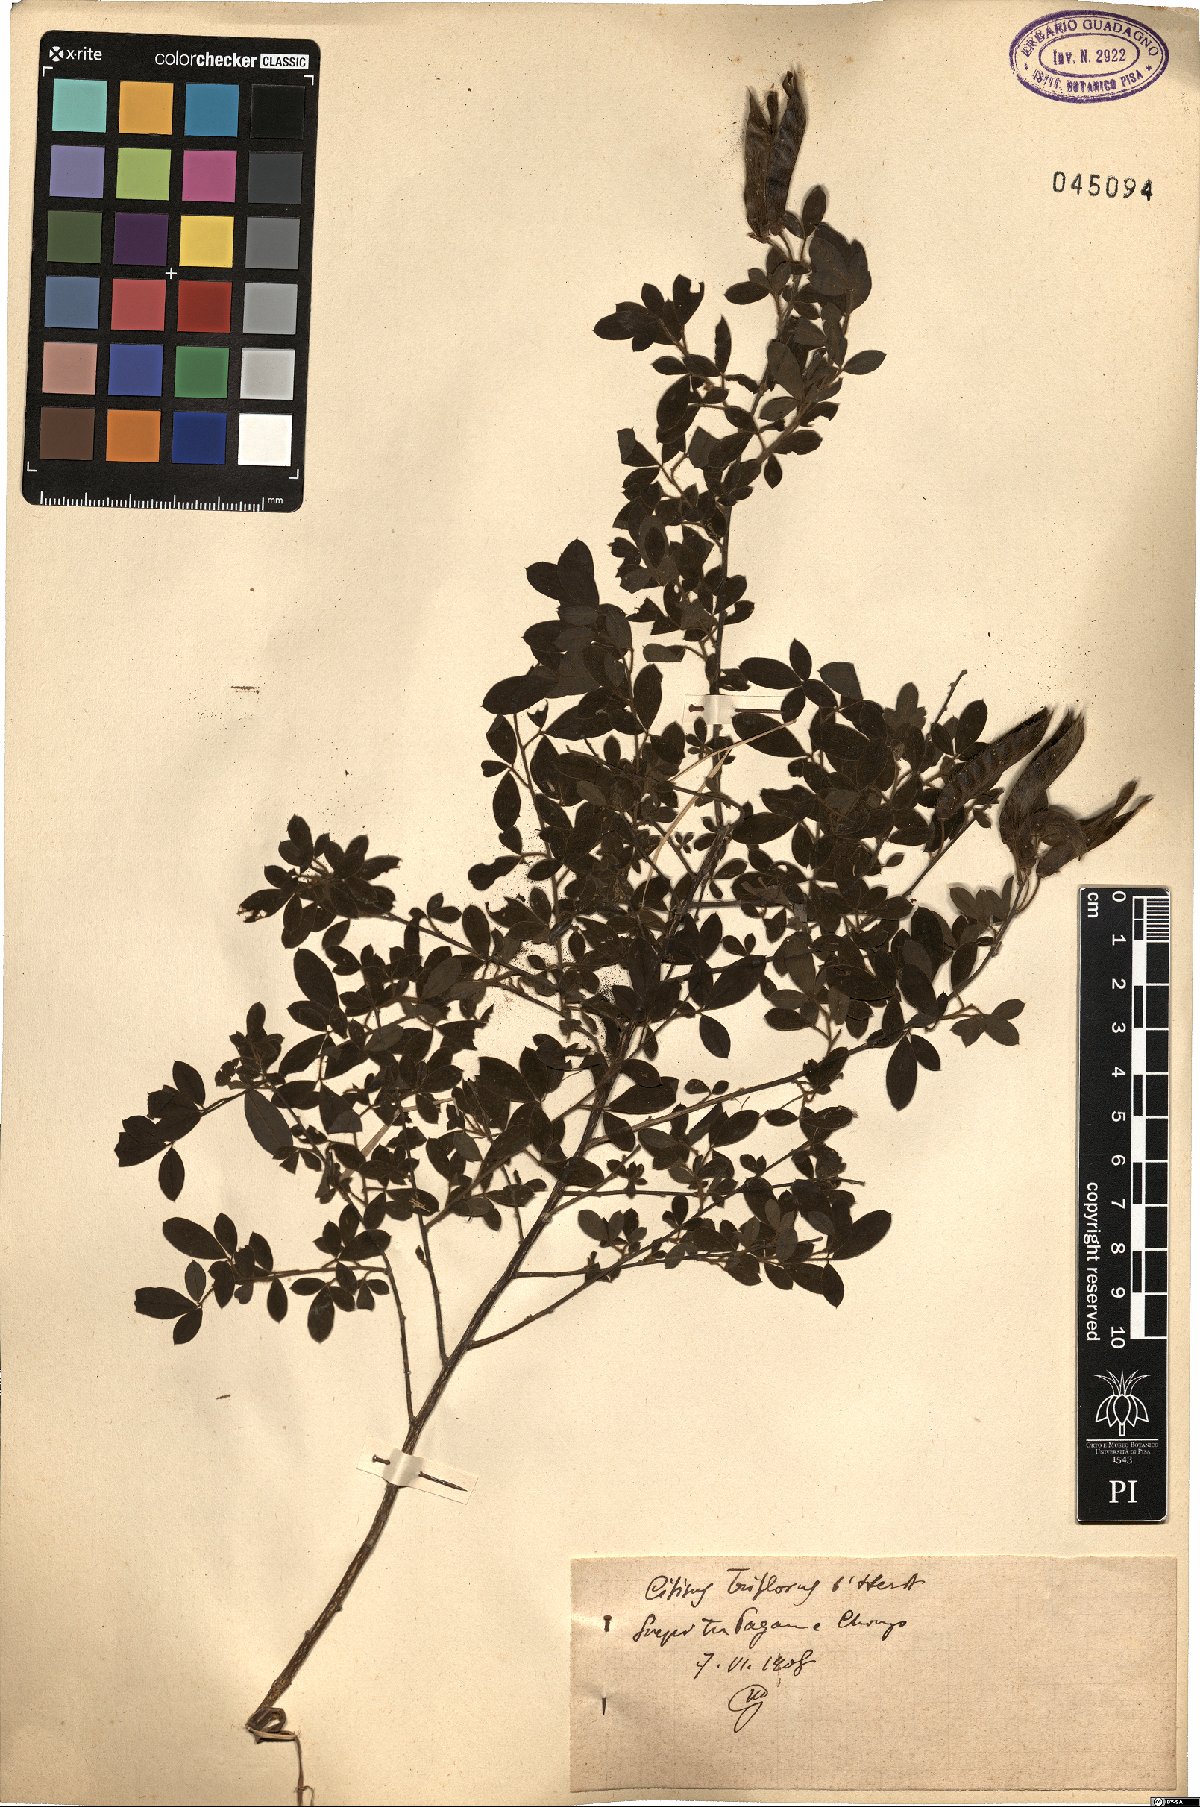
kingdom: Plantae
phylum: Tracheophyta
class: Magnoliopsida
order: Fabales
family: Fabaceae
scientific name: Fabaceae
